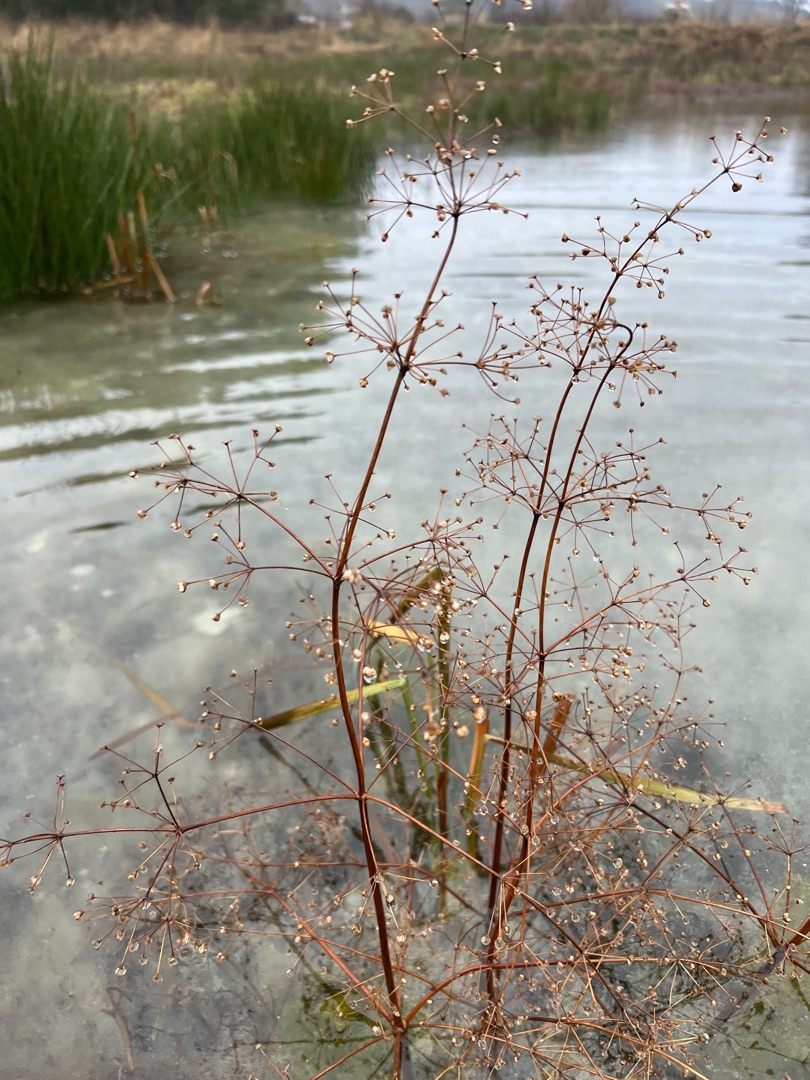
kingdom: Plantae
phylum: Tracheophyta
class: Liliopsida
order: Alismatales
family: Alismataceae
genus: Alisma
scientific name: Alisma plantago-aquatica
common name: Vejbred-skeblad
